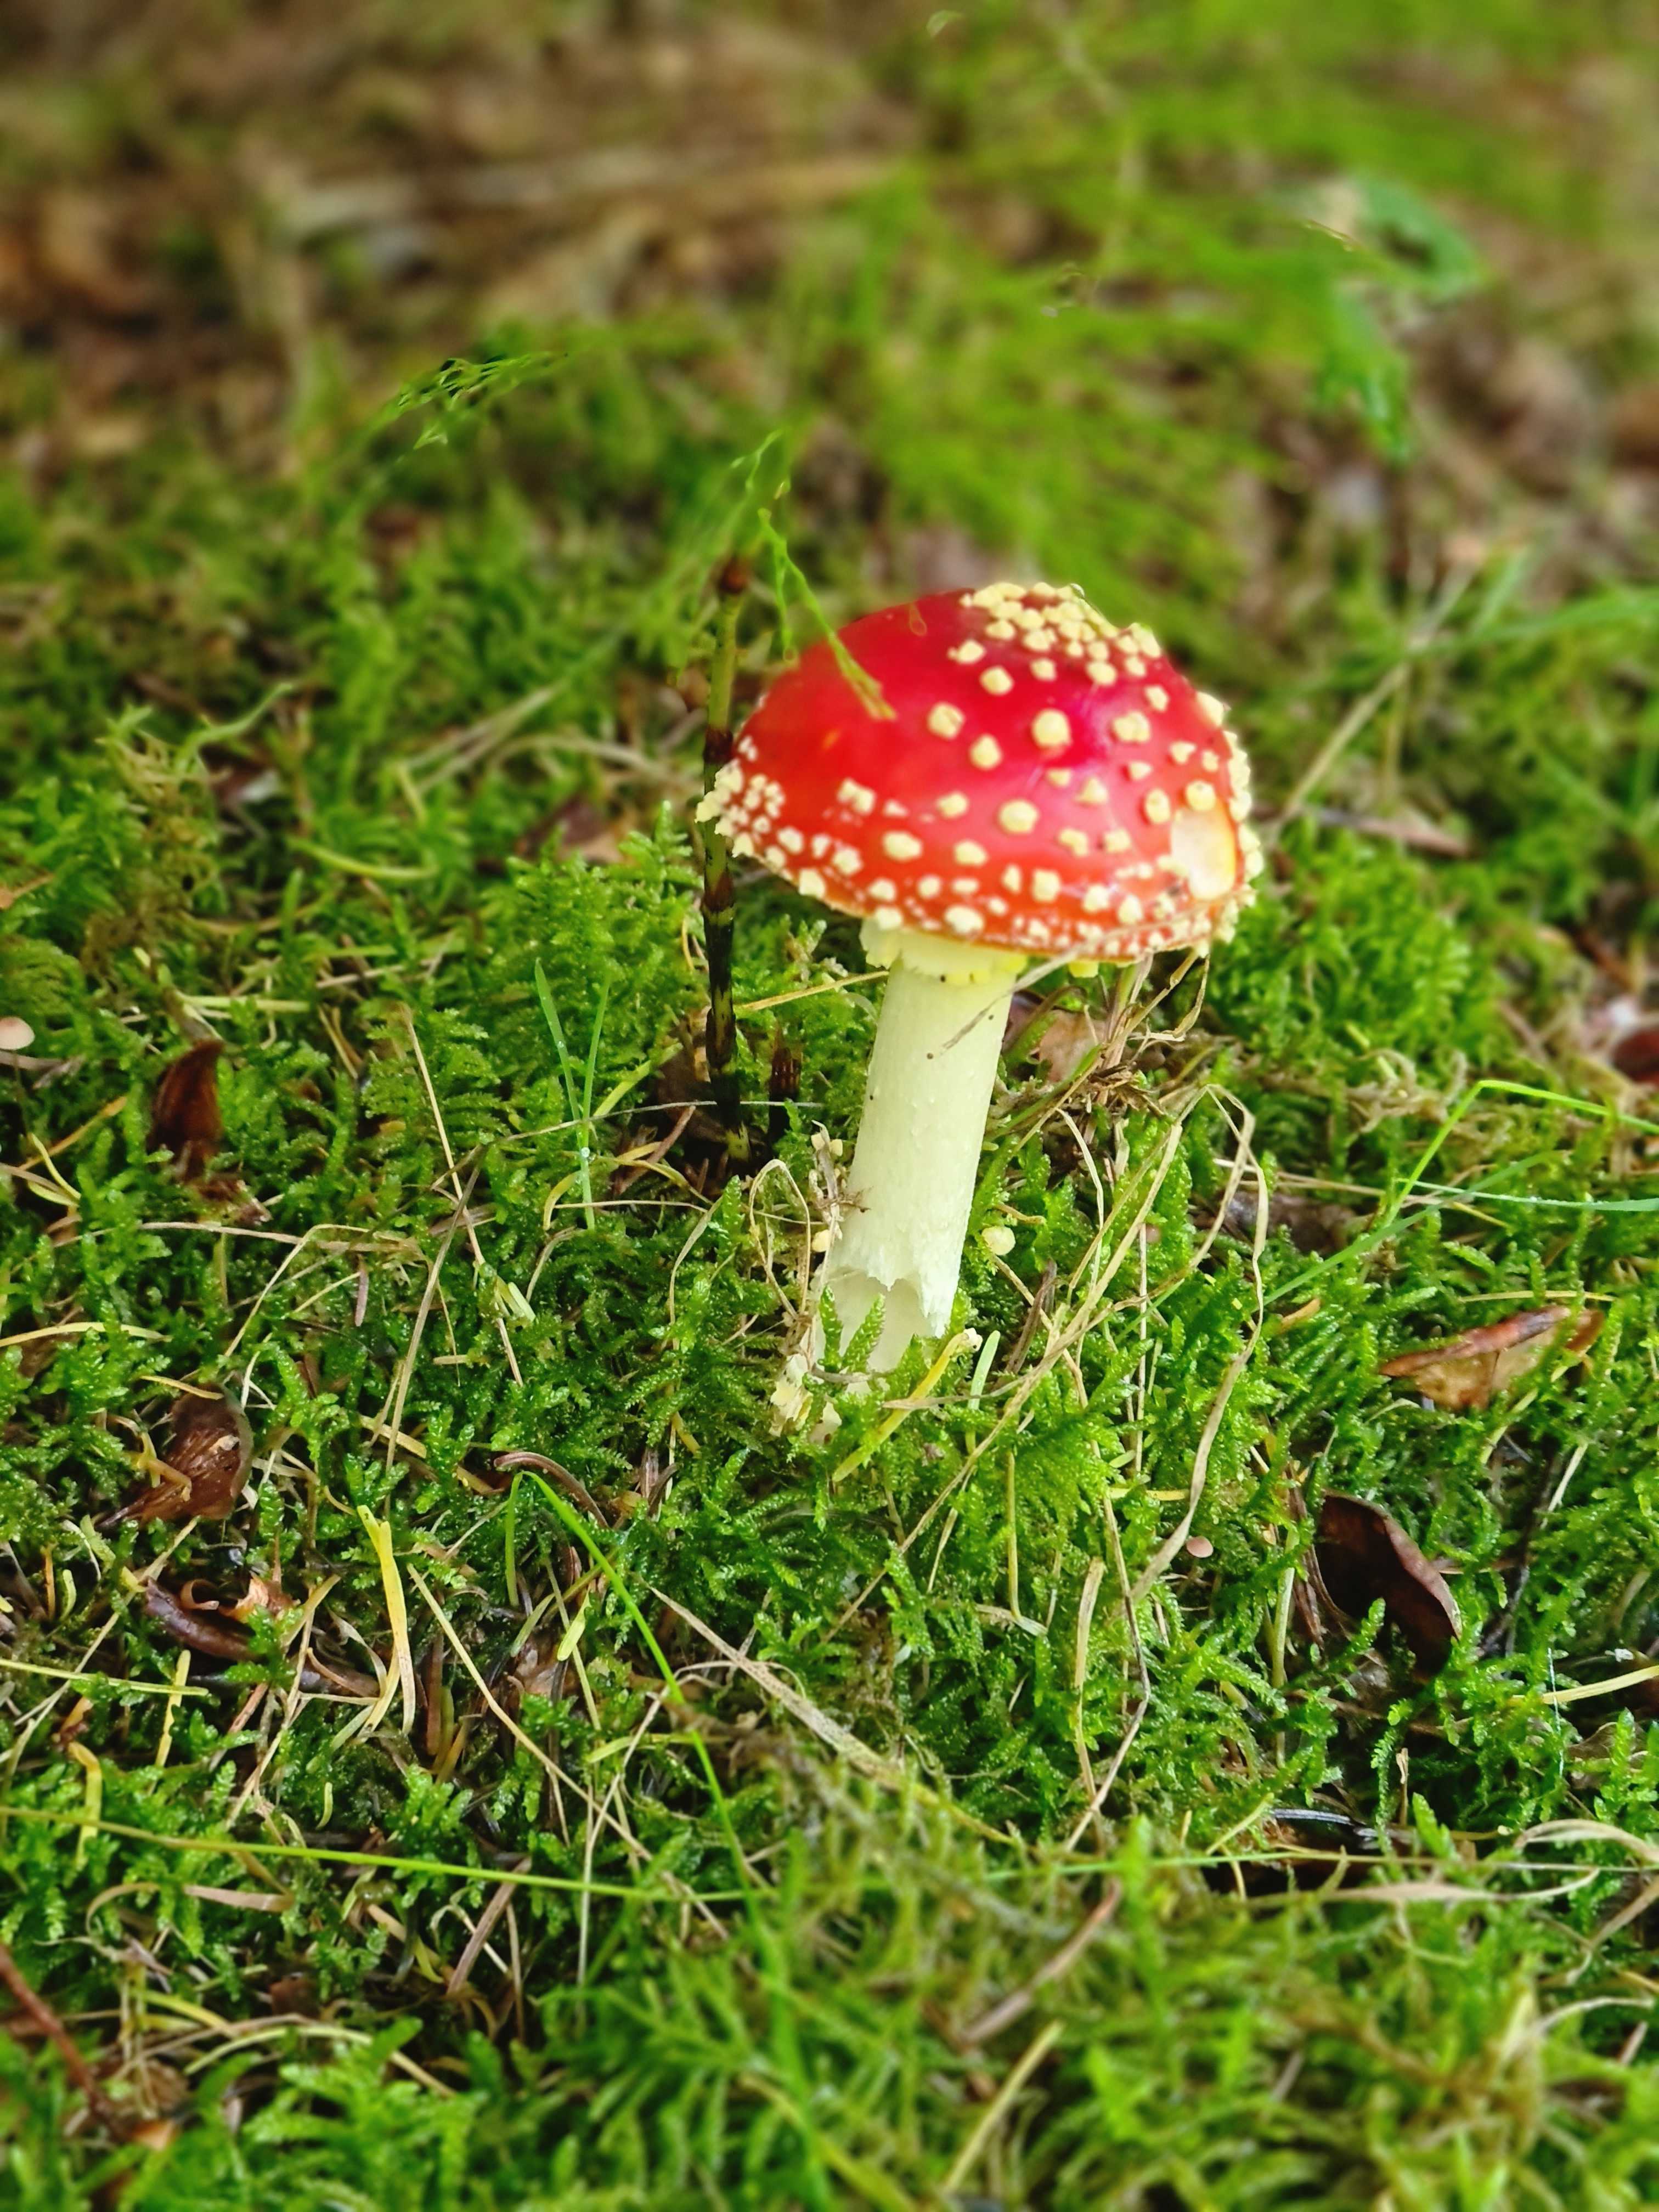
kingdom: Fungi
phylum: Basidiomycota
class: Agaricomycetes
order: Agaricales
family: Amanitaceae
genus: Amanita
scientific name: Amanita muscaria
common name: rød fluesvamp
